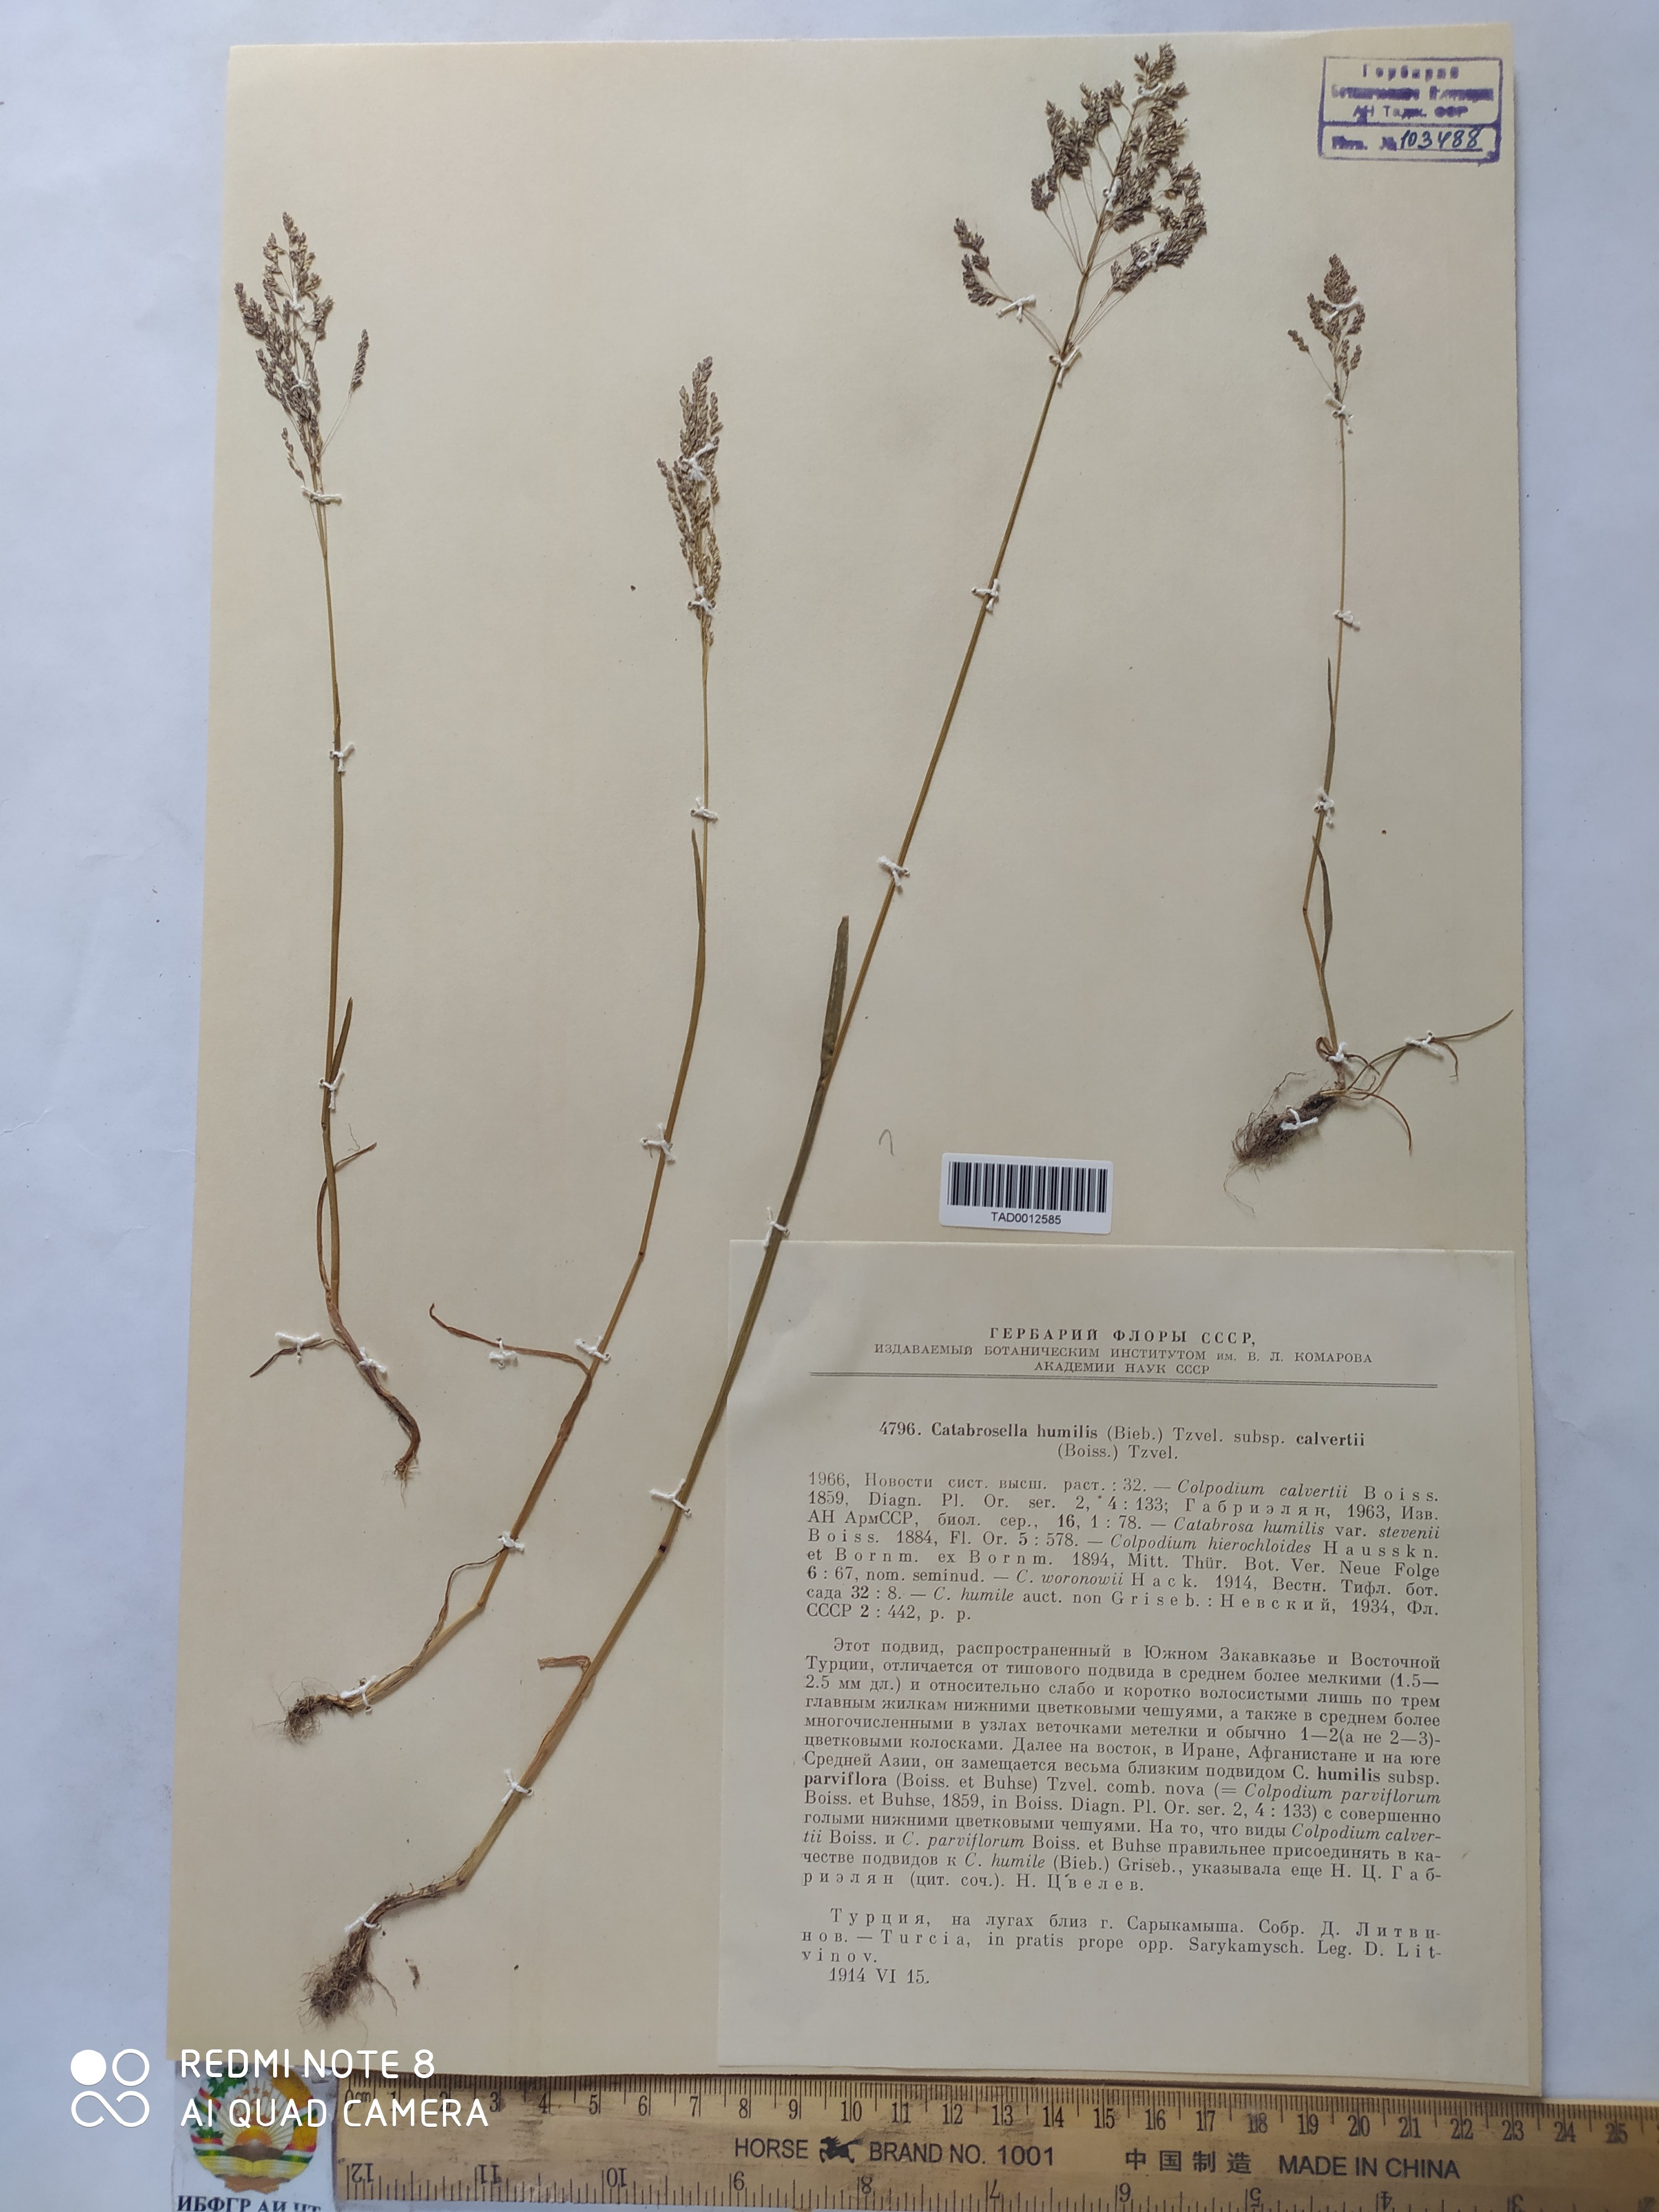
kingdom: Plantae
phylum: Tracheophyta
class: Liliopsida
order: Poales
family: Poaceae
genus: Catabrosella
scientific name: Catabrosella humilis
